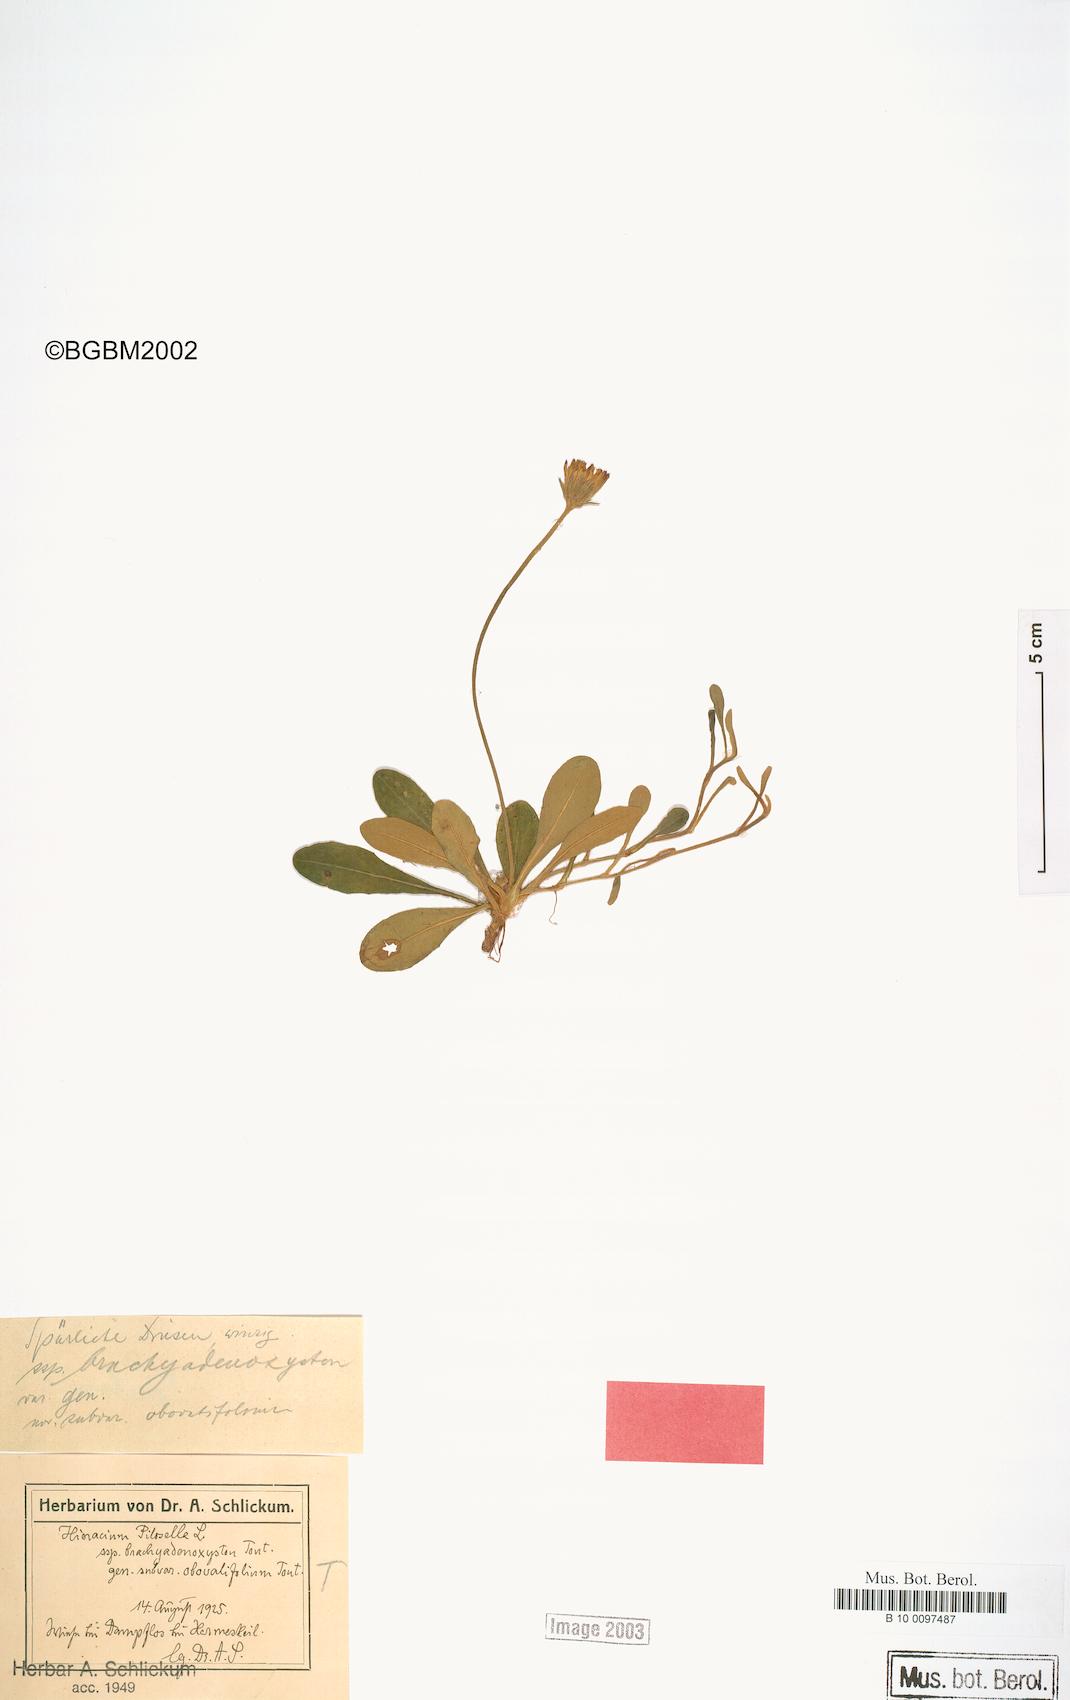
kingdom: Plantae
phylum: Tracheophyta
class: Magnoliopsida
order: Asterales
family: Asteraceae
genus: Pilosella
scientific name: Pilosella officinarum
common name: Mouse-ear hawkweed
